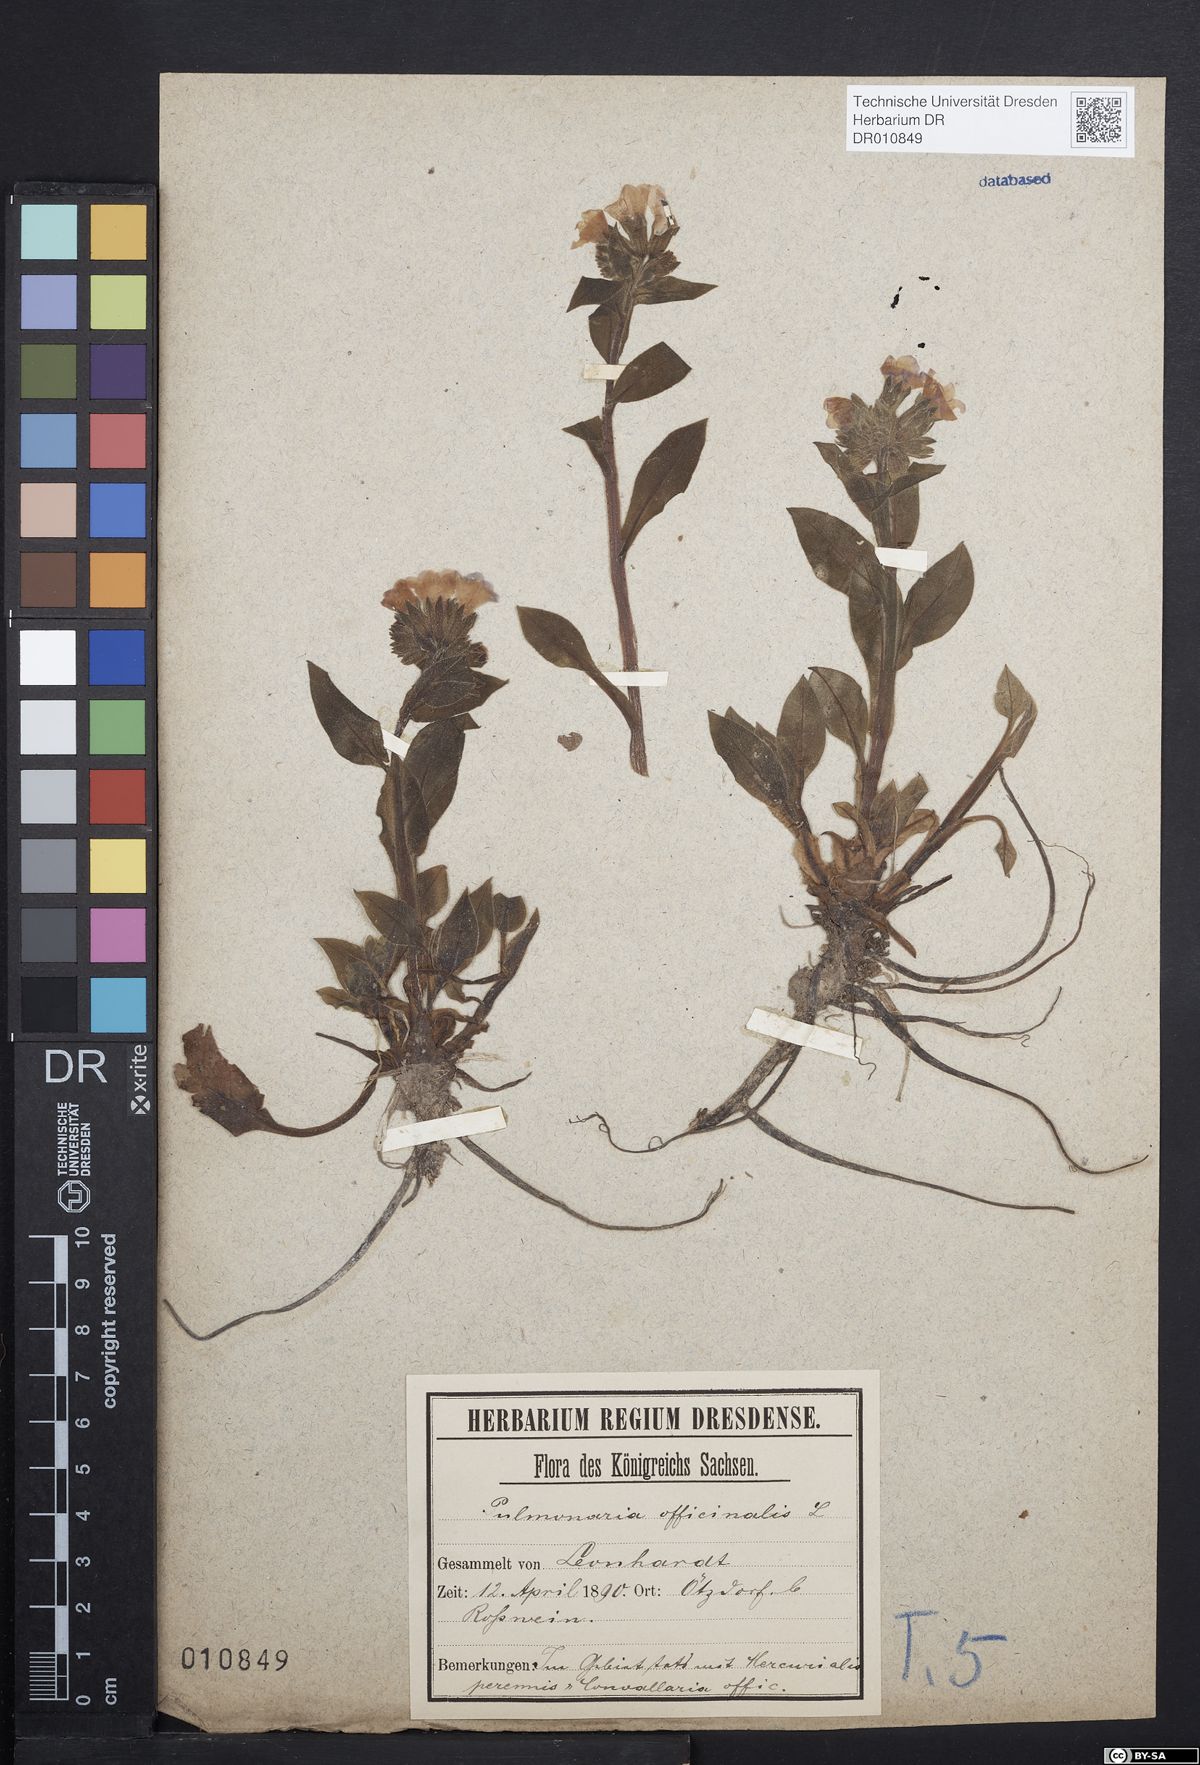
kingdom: Plantae
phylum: Tracheophyta
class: Magnoliopsida
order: Boraginales
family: Boraginaceae
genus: Pulmonaria
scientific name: Pulmonaria obscura
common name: Suffolk lungwort
